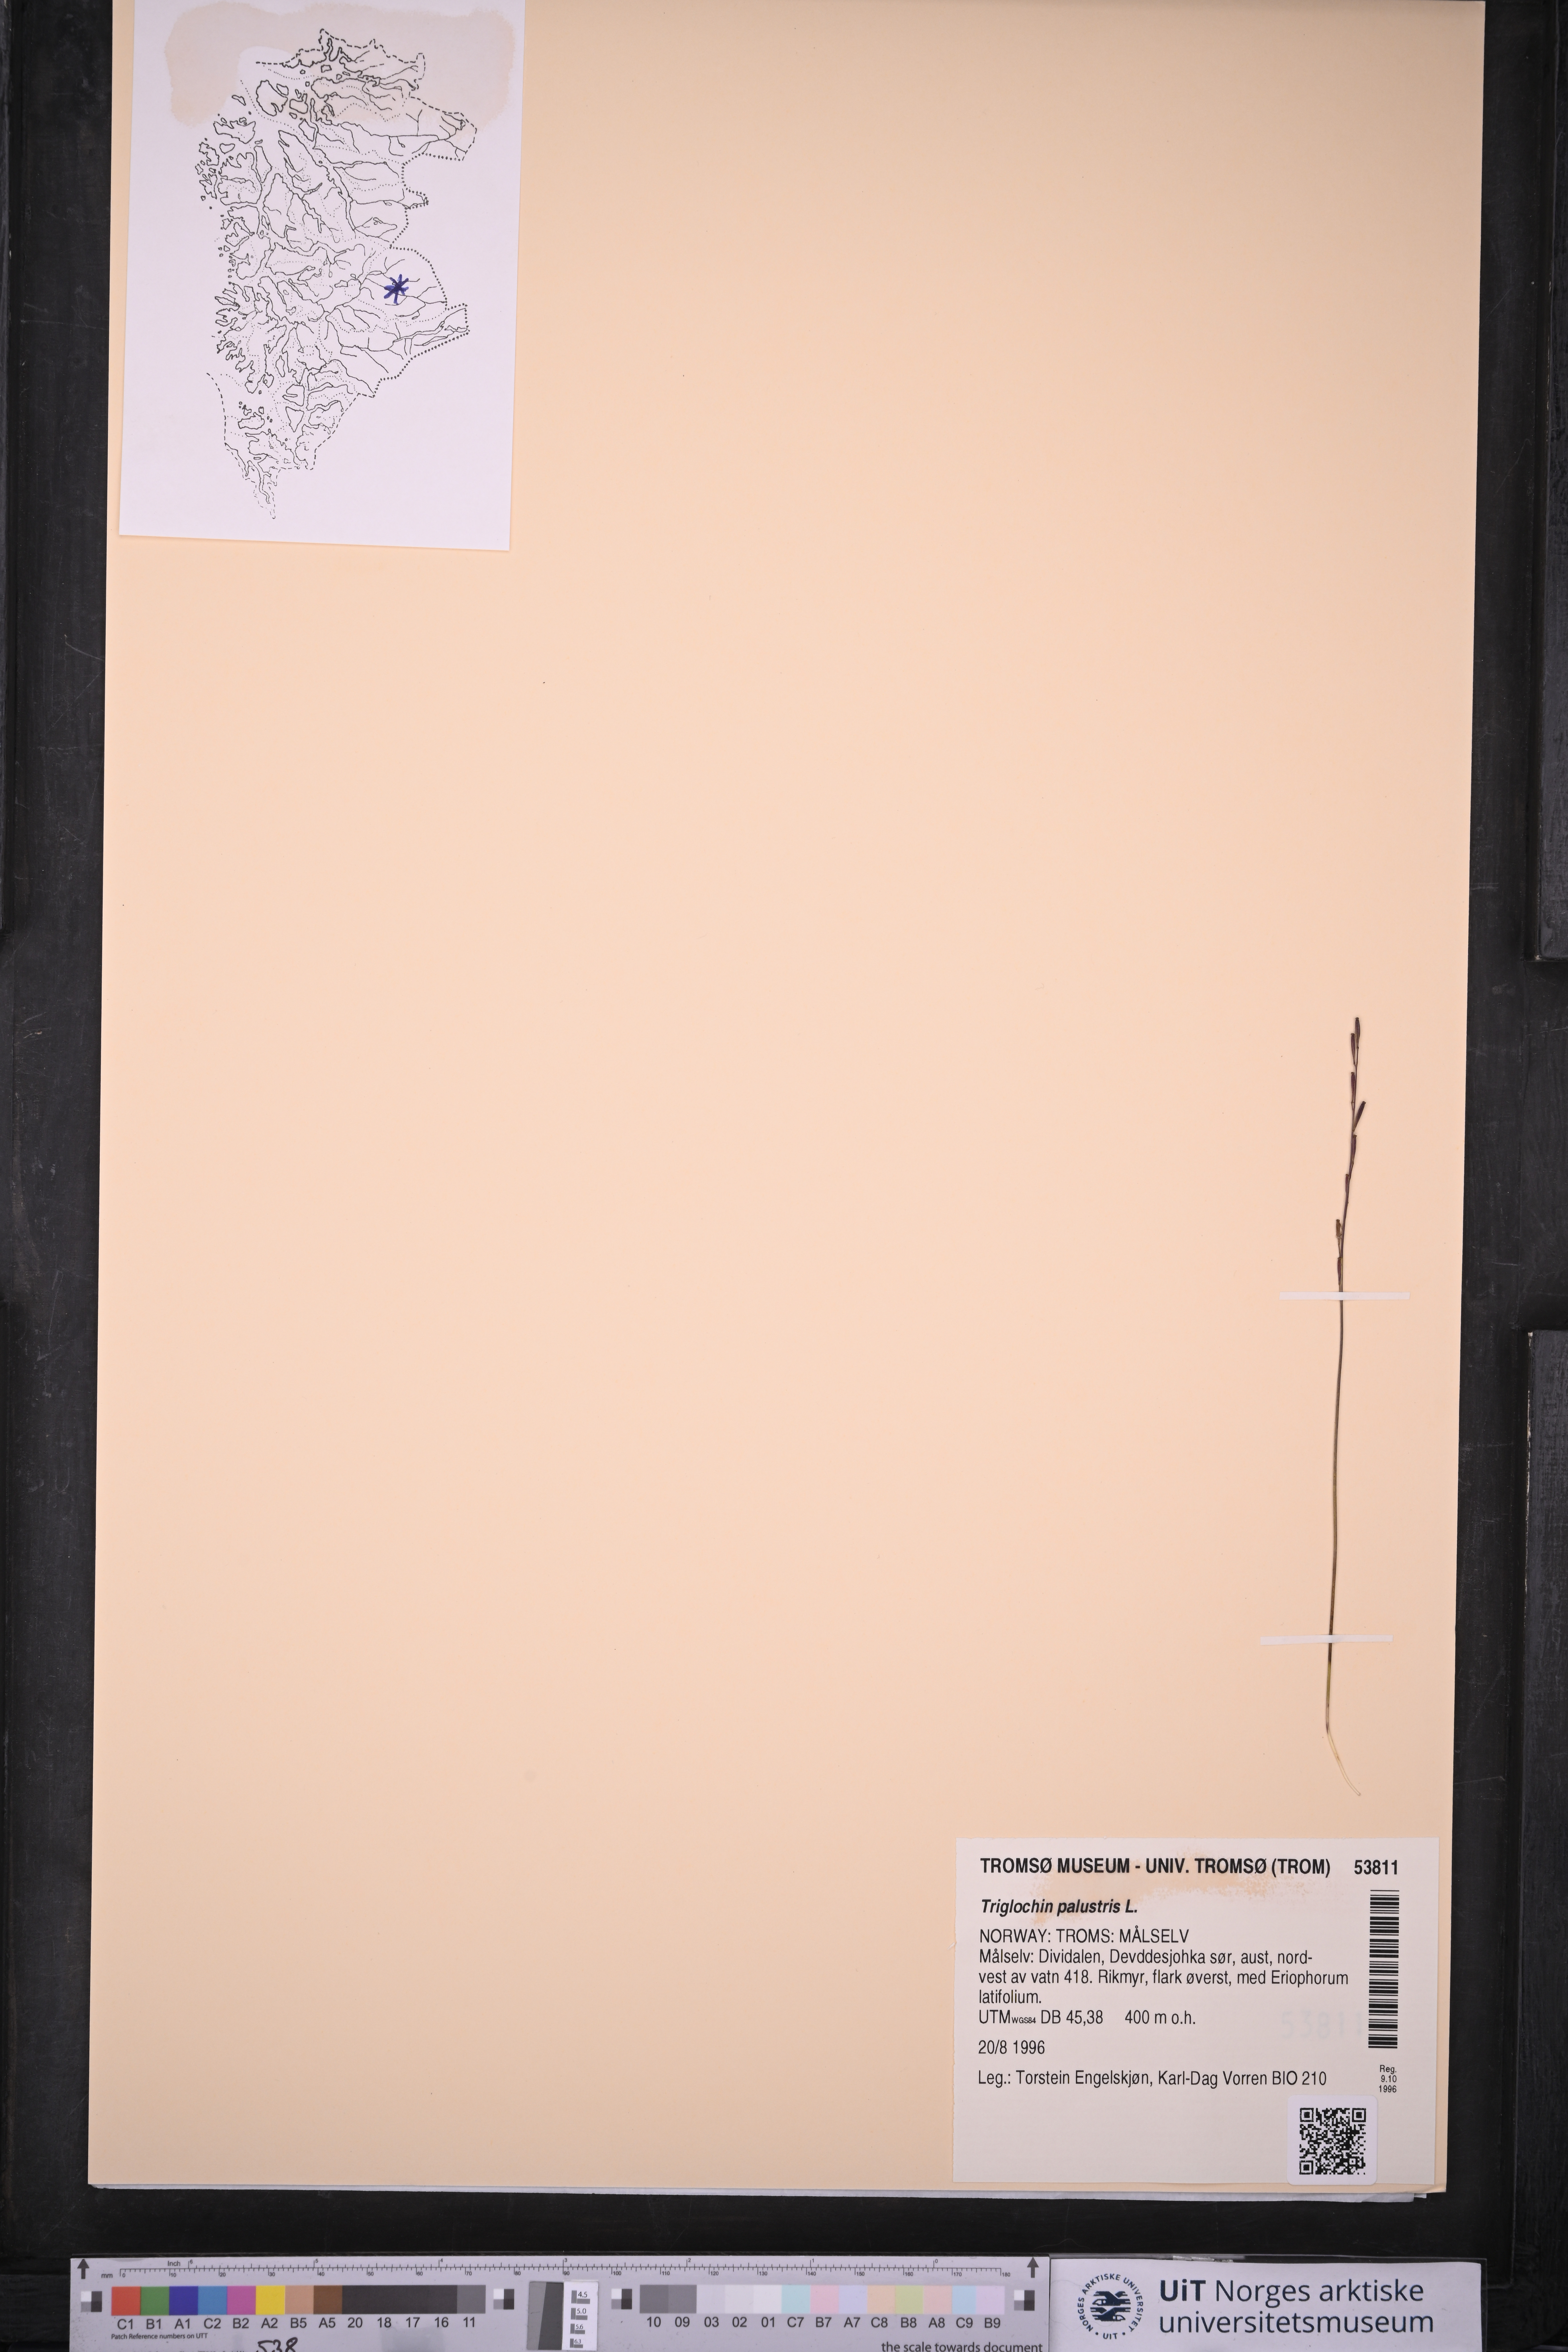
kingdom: Plantae
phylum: Tracheophyta
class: Liliopsida
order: Alismatales
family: Juncaginaceae
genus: Triglochin
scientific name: Triglochin palustris
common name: Marsh arrowgrass
